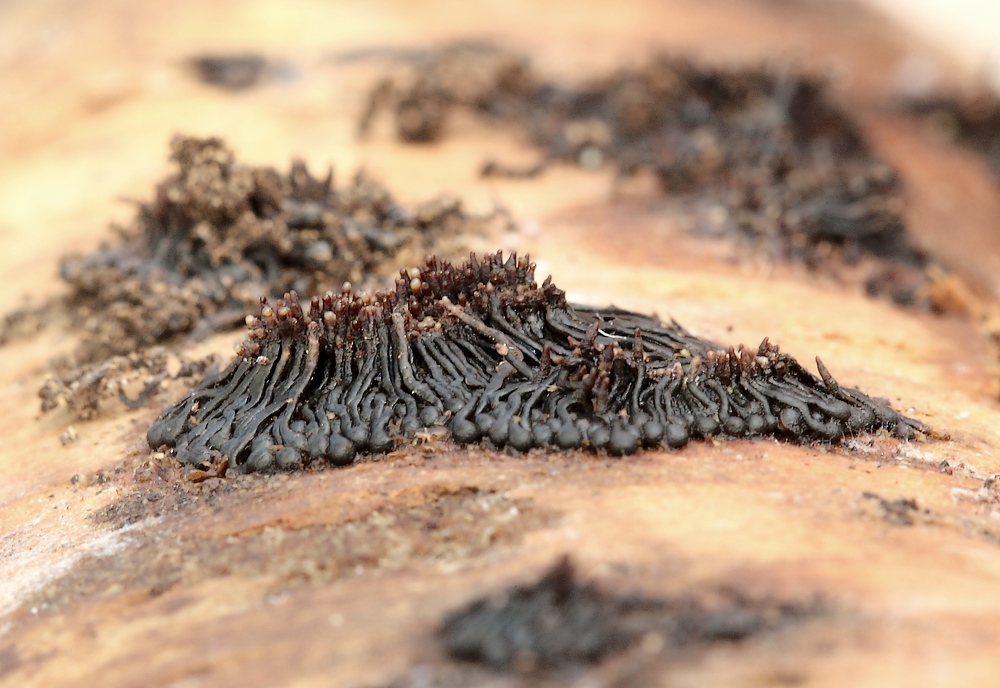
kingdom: Fungi
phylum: Ascomycota
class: Sordariomycetes
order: Calosphaeriales
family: Calosphaeriaceae
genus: Calosphaeria
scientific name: Calosphaeria pulchella
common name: smuk slyngkerne
